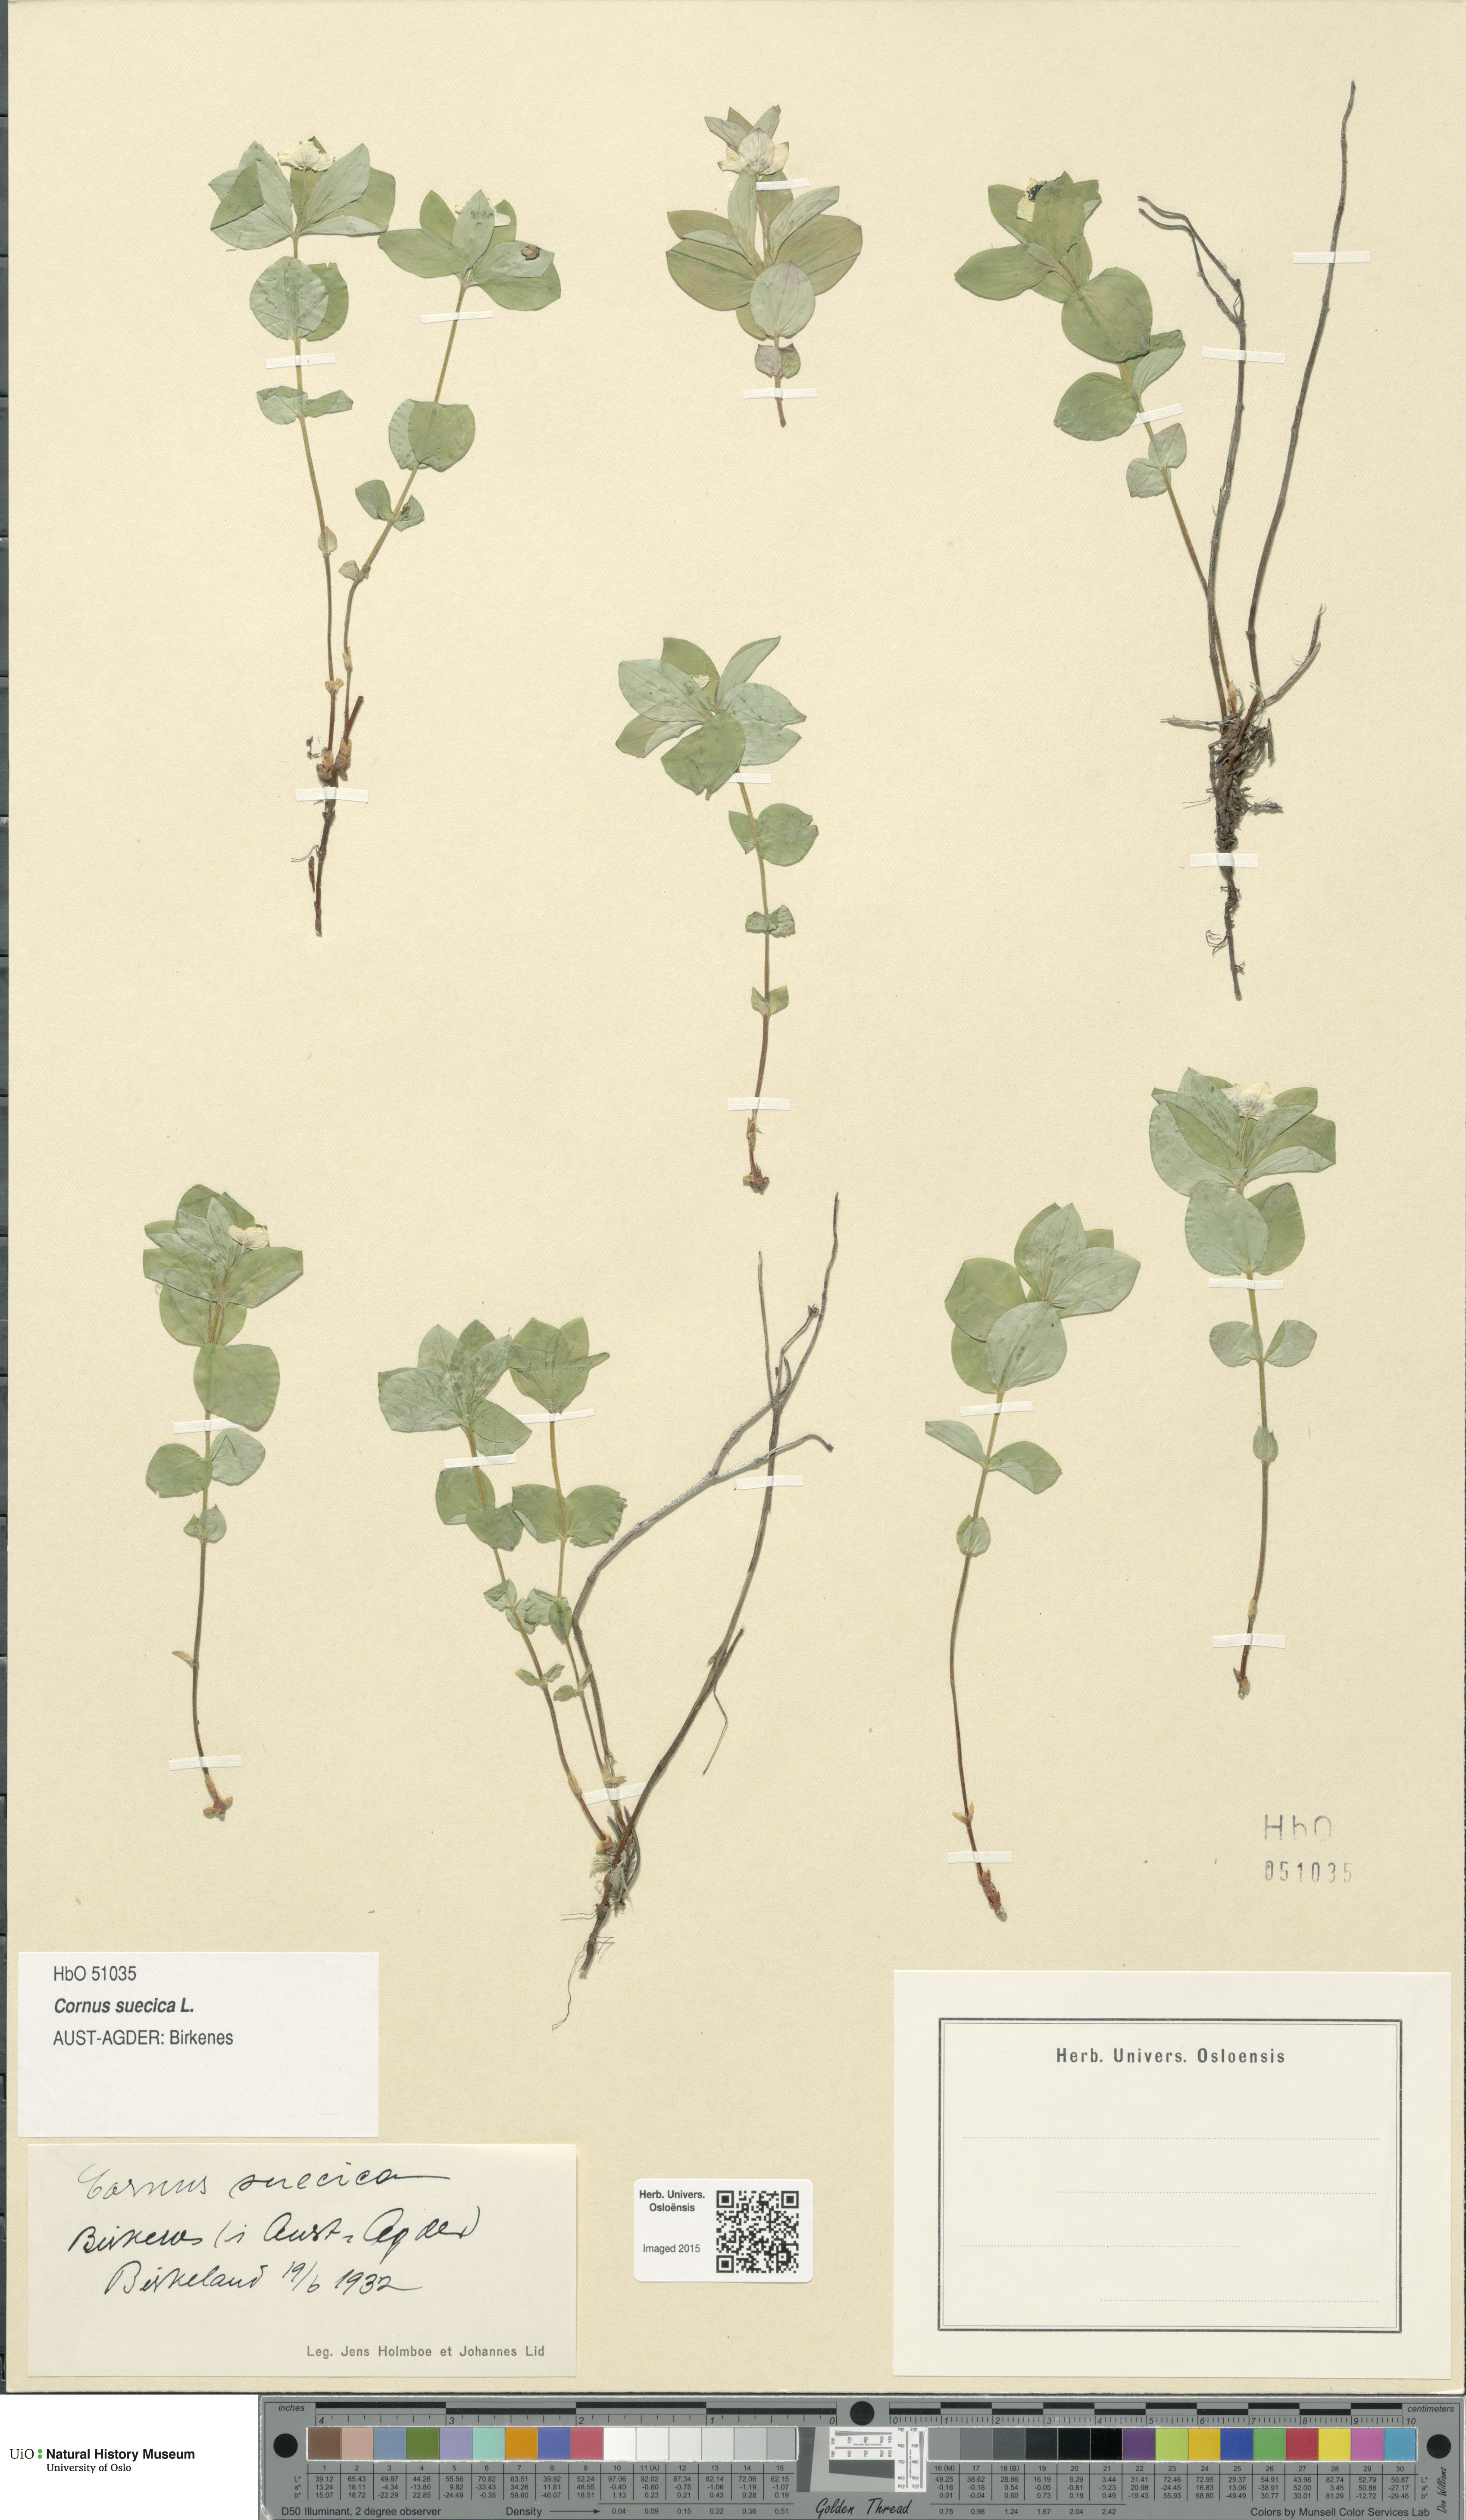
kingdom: Plantae
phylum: Tracheophyta
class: Magnoliopsida
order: Cornales
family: Cornaceae
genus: Cornus
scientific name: Cornus suecica
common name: Dwarf cornel
